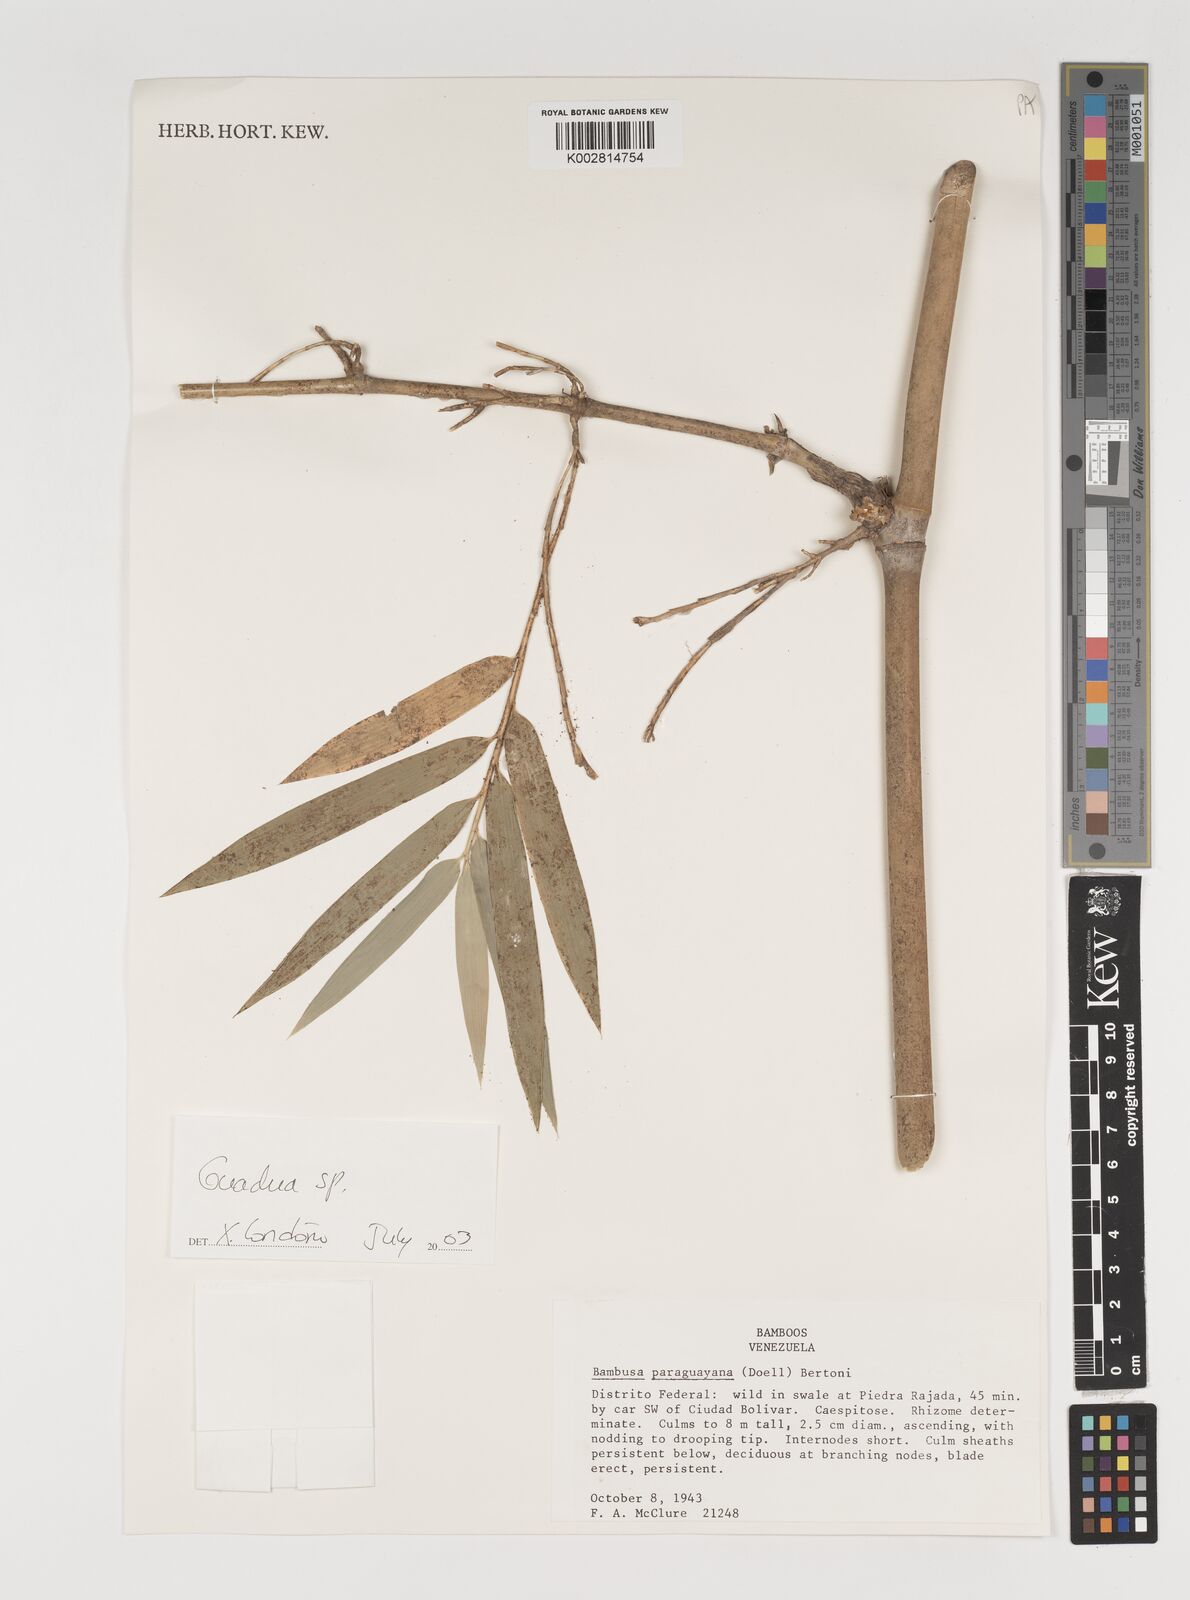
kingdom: Plantae
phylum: Tracheophyta
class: Liliopsida
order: Poales
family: Poaceae
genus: Guadua
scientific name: Guadua
